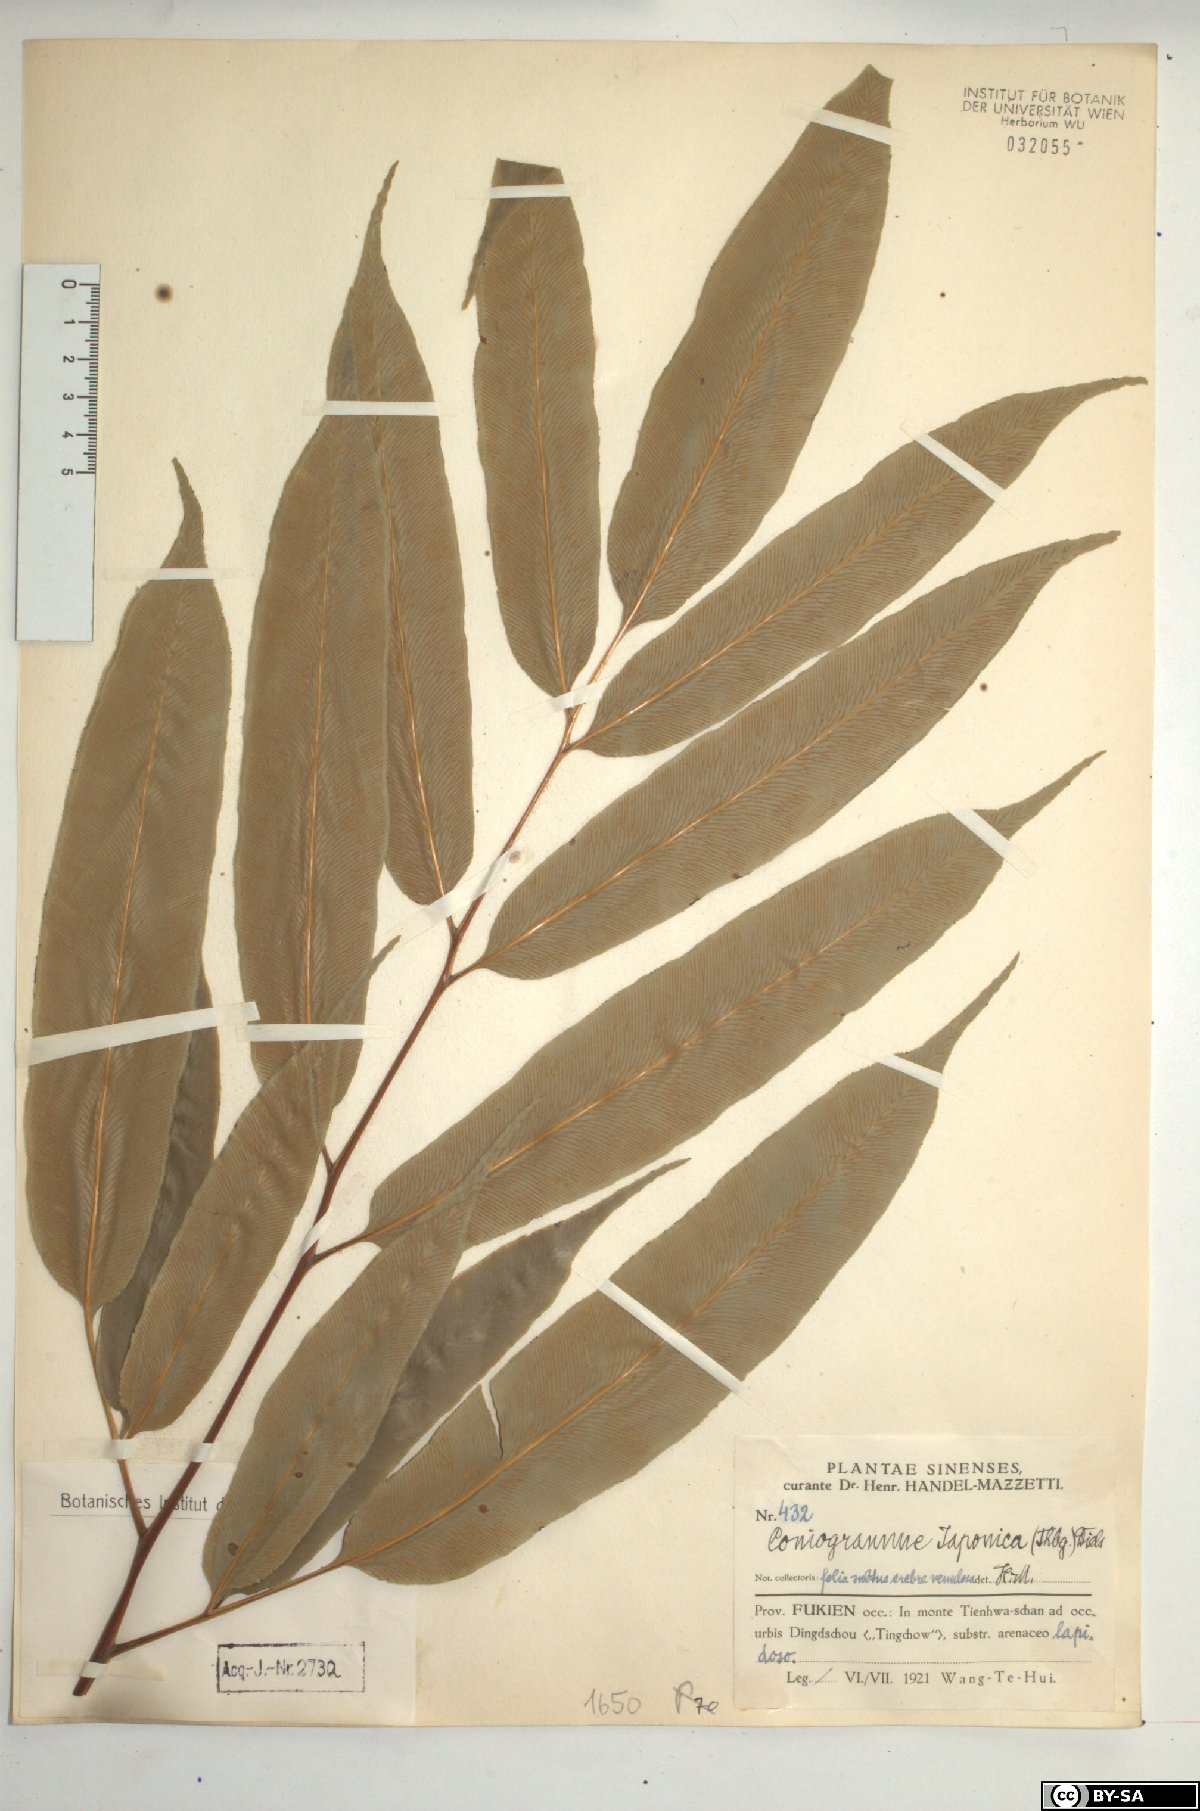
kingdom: Plantae
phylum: Tracheophyta
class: Polypodiopsida
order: Polypodiales
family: Pteridaceae
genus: Coniogramme
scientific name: Coniogramme japonica
